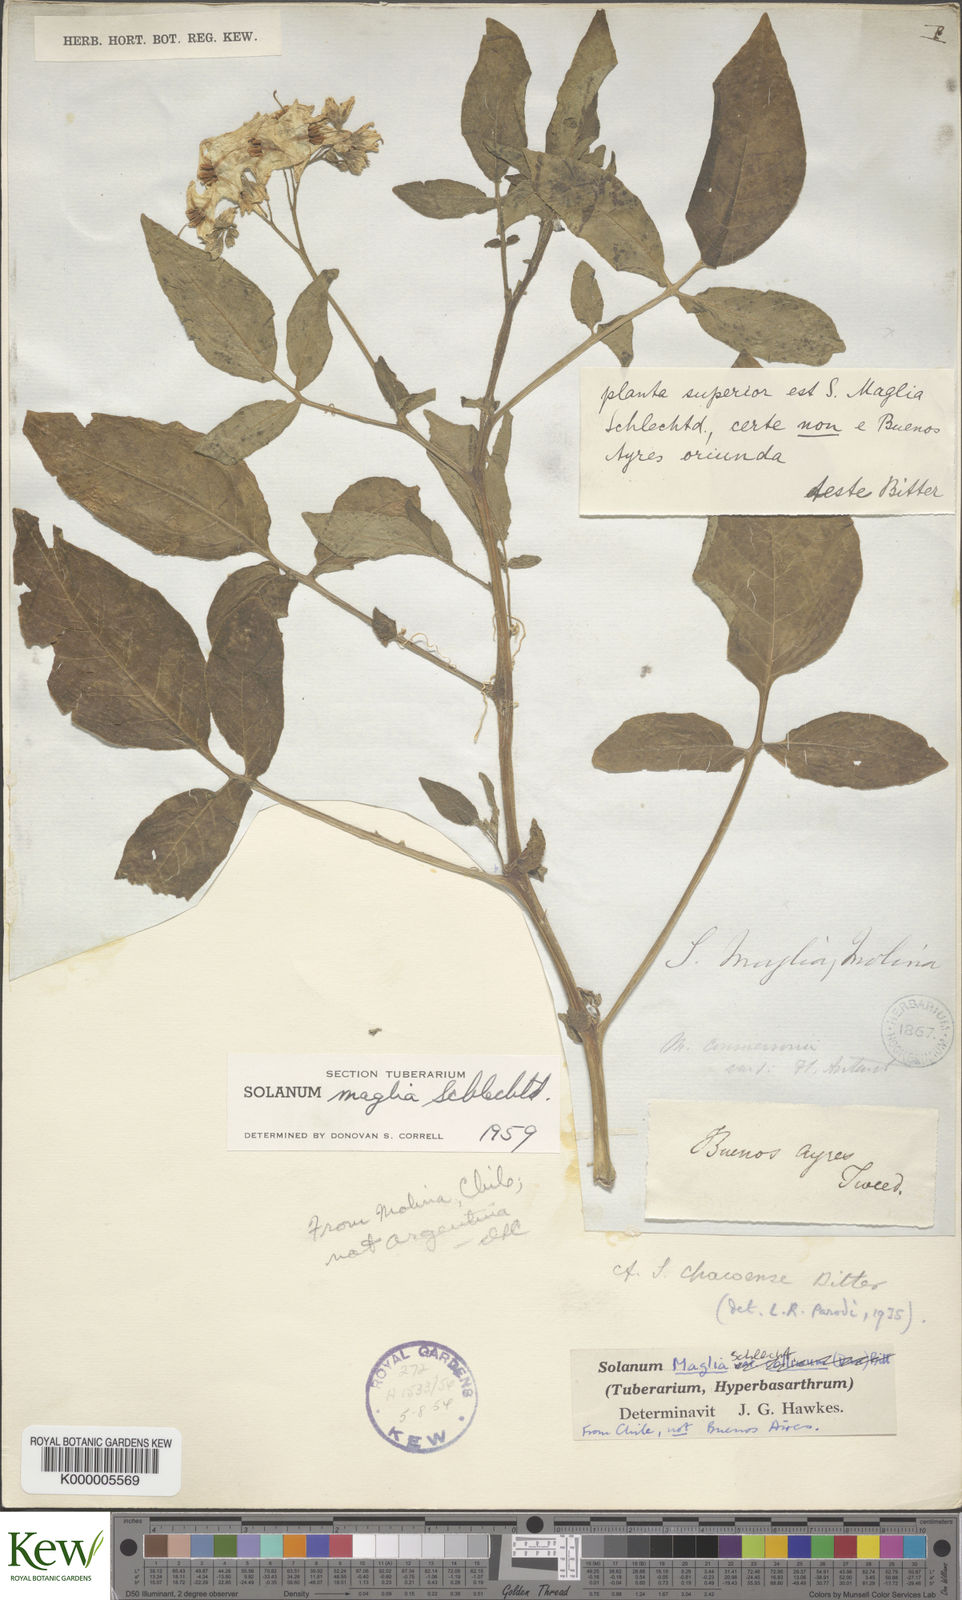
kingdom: Plantae
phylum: Tracheophyta
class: Magnoliopsida
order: Solanales
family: Solanaceae
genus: Solanum
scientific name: Solanum maglia
